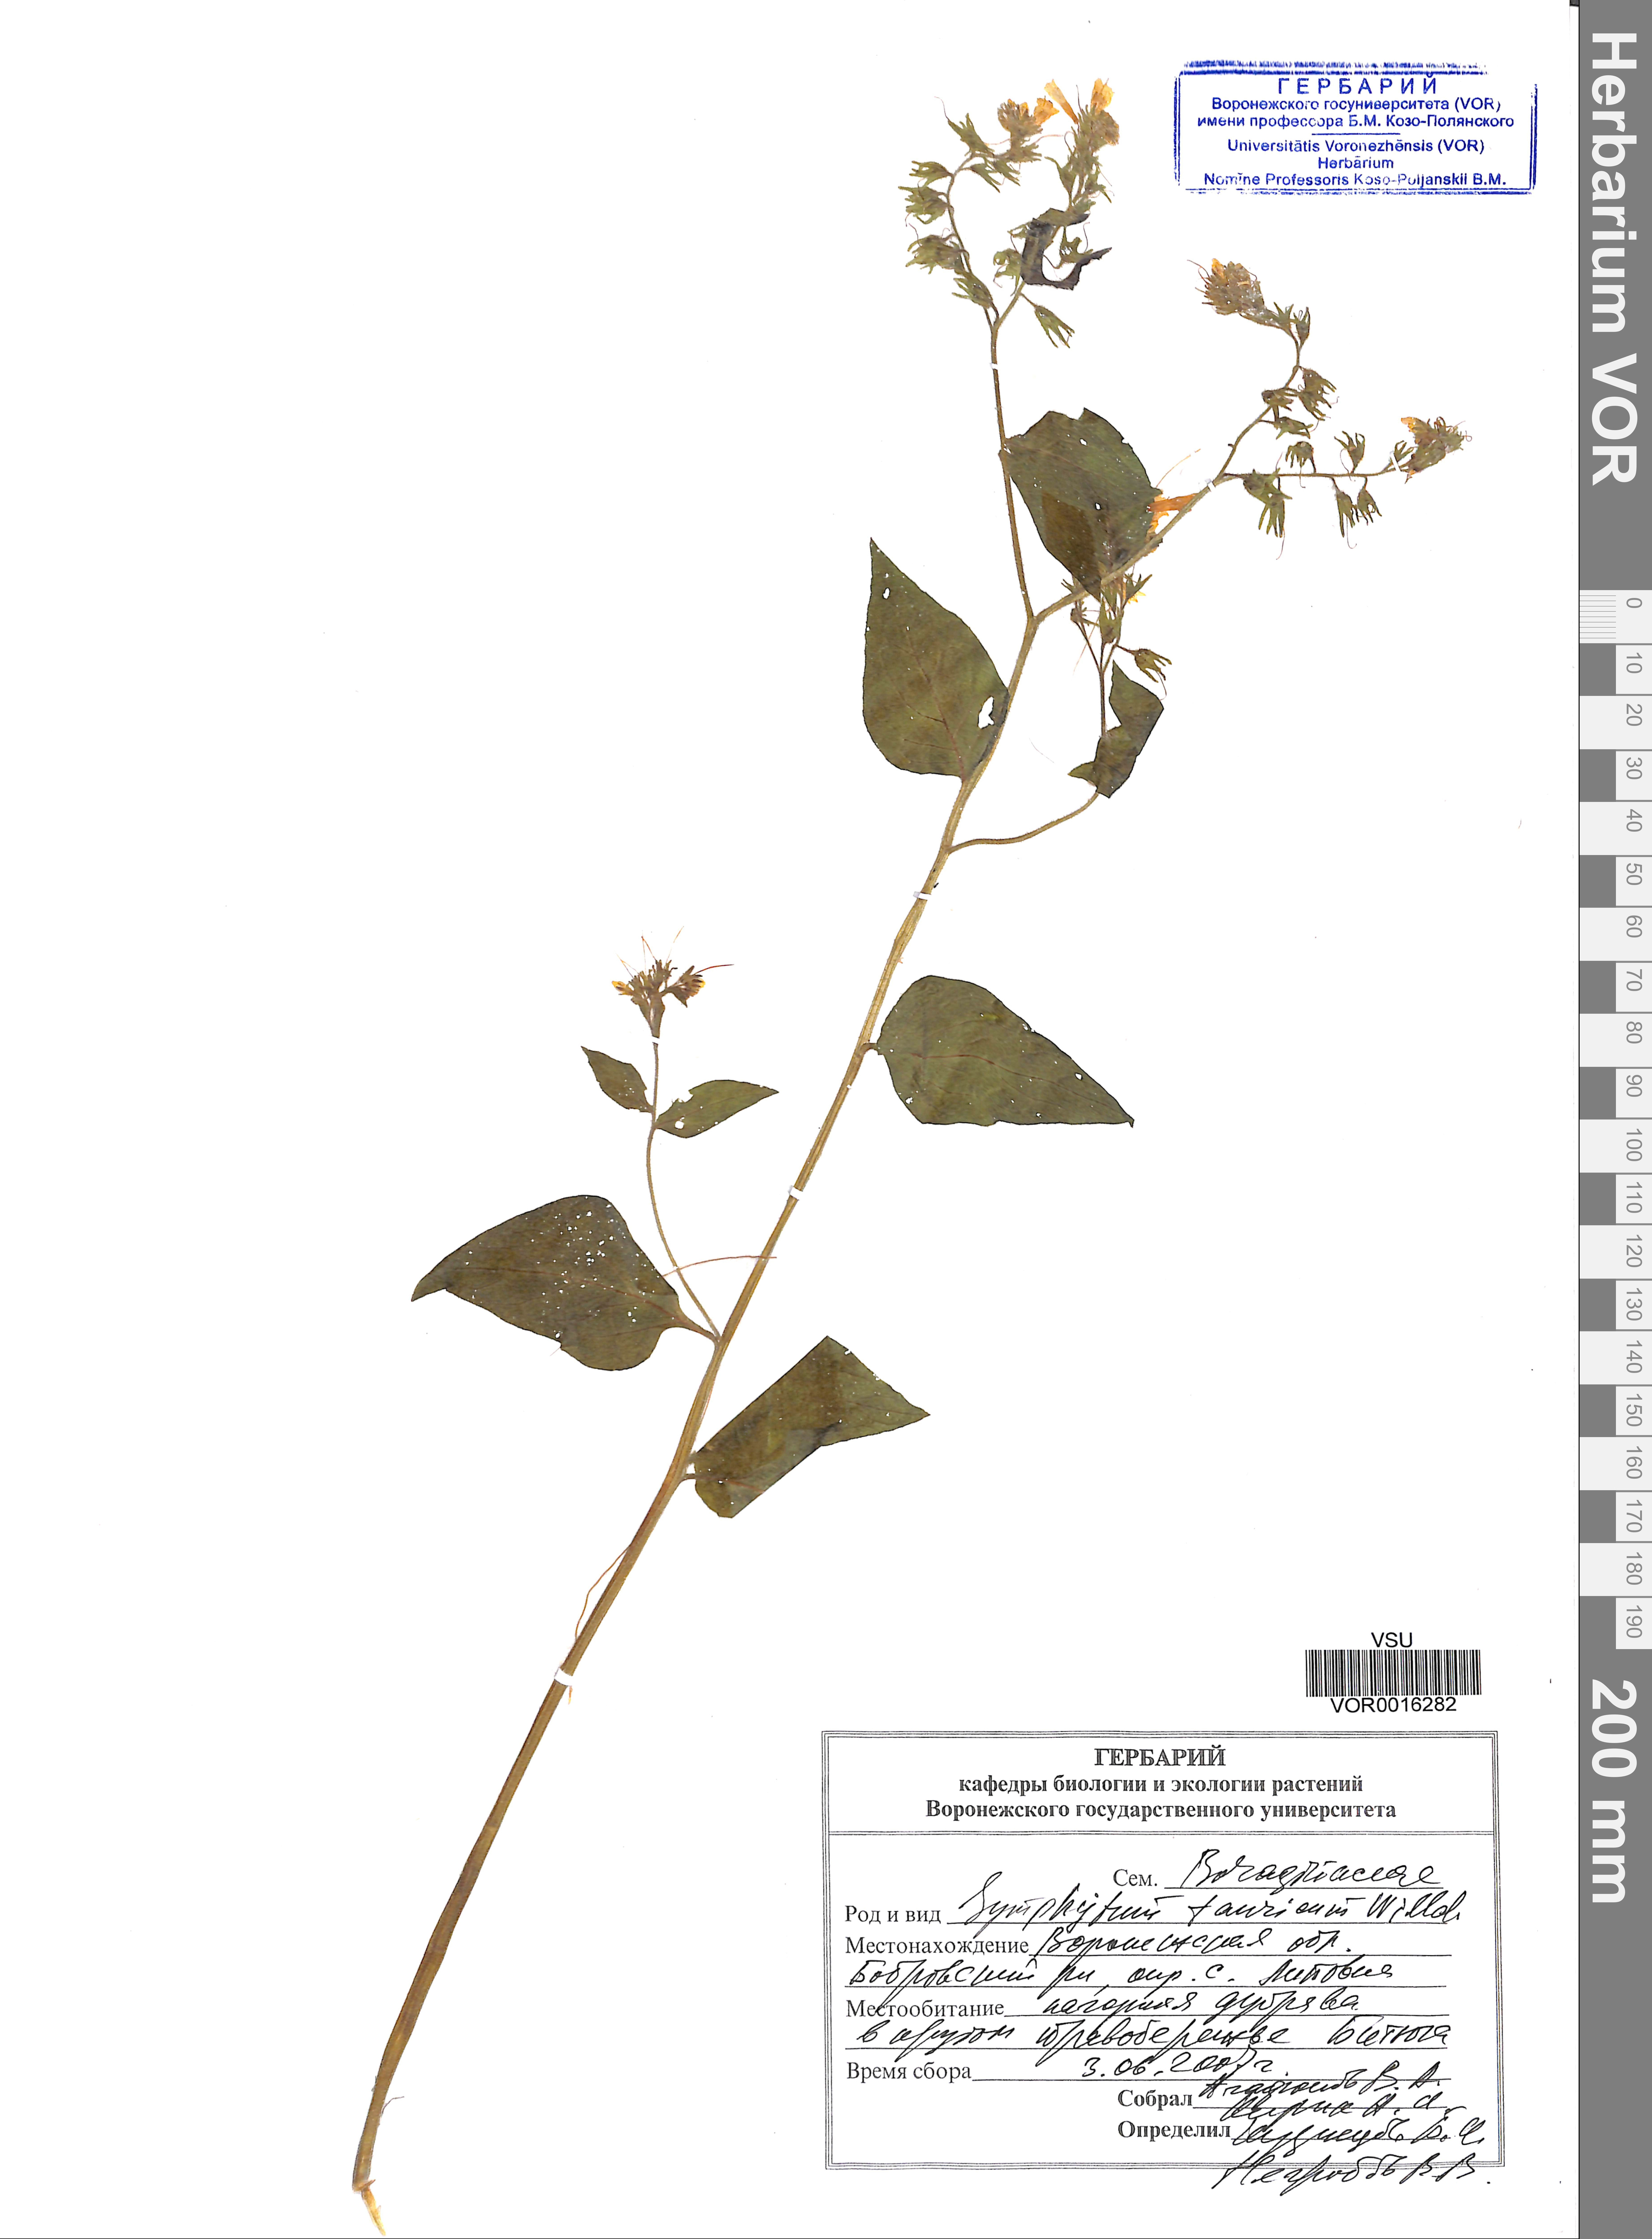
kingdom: Plantae
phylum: Tracheophyta
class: Magnoliopsida
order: Boraginales
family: Boraginaceae
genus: Symphytum
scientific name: Symphytum tauricum
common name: Crimean comfrey
